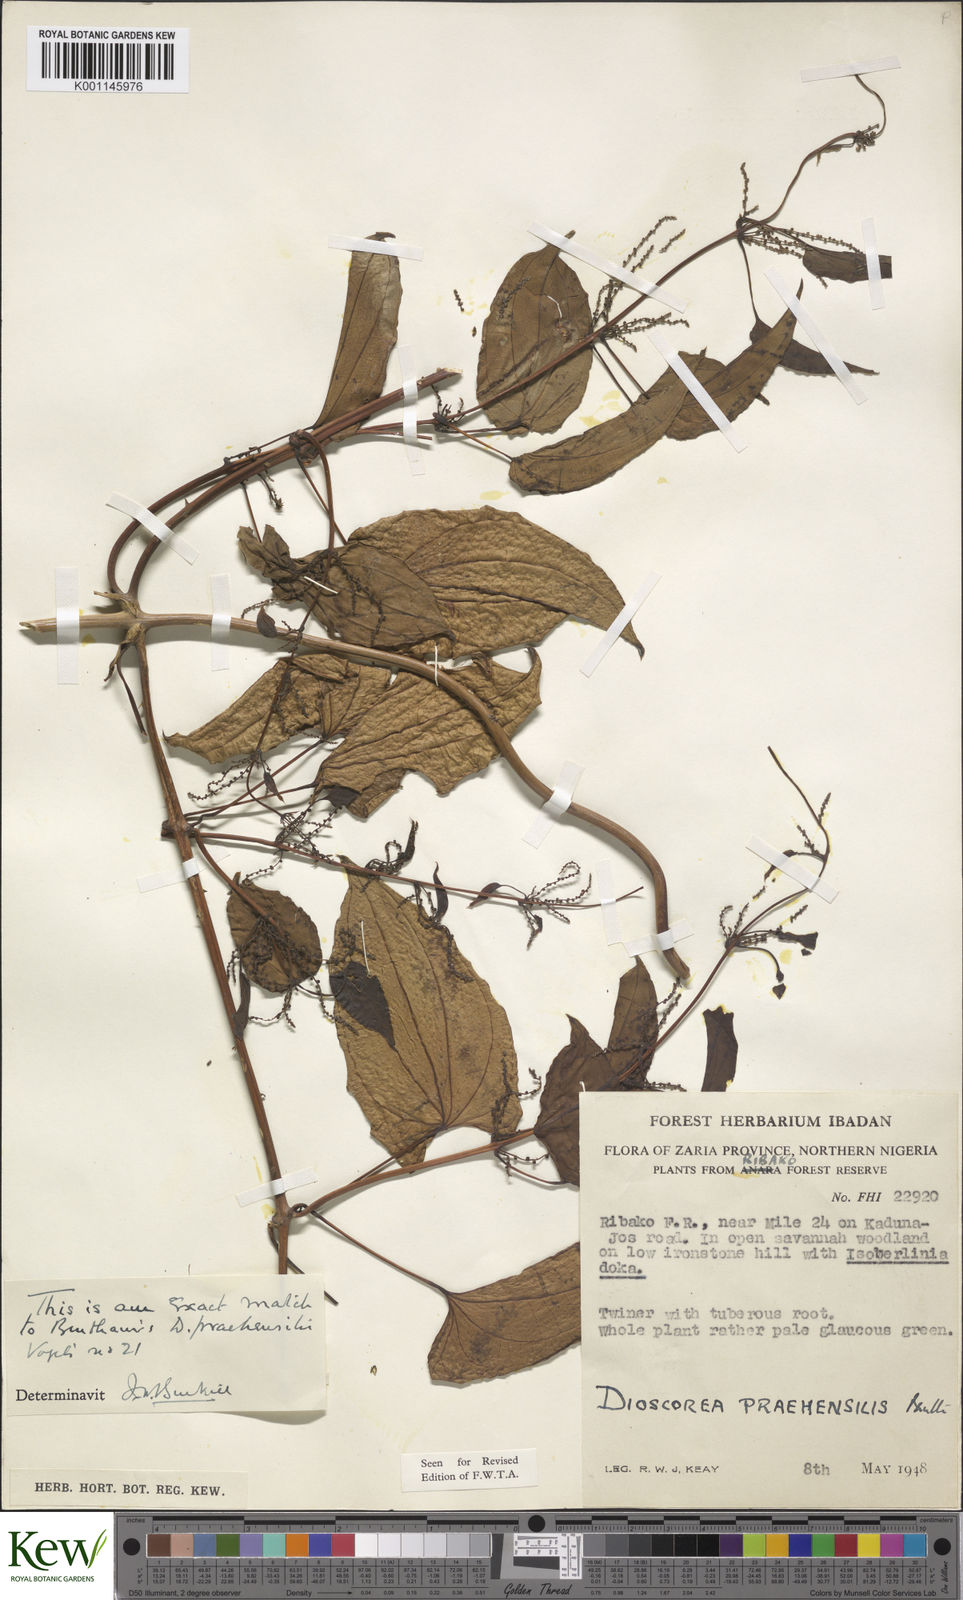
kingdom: Plantae
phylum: Tracheophyta
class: Liliopsida
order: Dioscoreales
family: Dioscoreaceae
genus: Dioscorea
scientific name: Dioscorea praehensilis
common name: Bush yam
